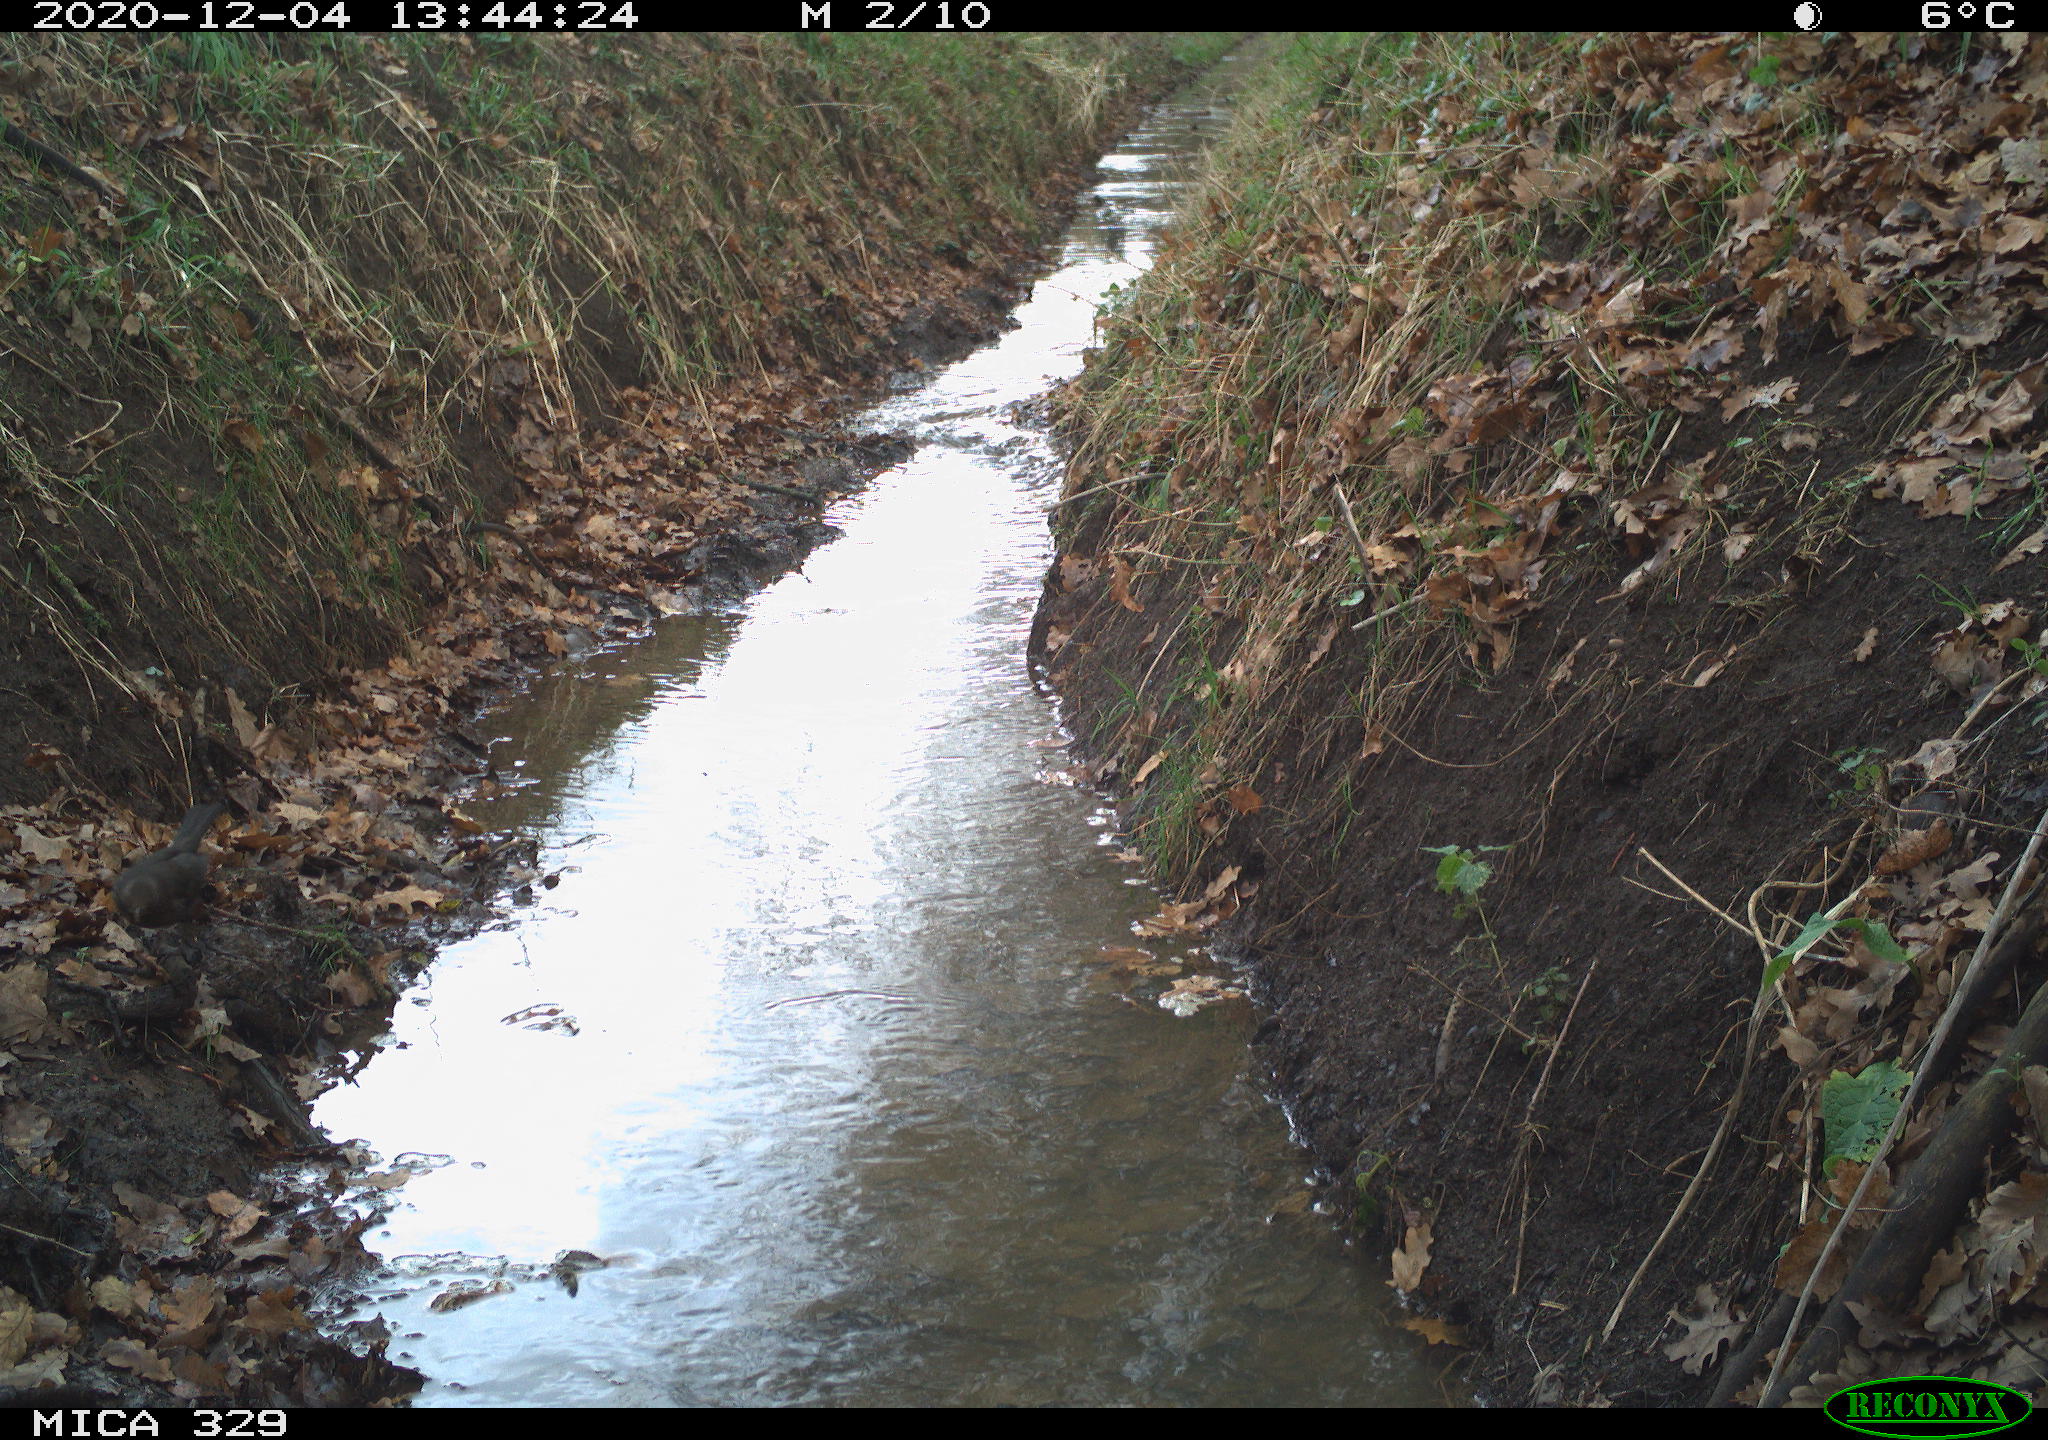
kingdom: Animalia
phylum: Chordata
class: Aves
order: Passeriformes
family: Turdidae
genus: Turdus
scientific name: Turdus philomelos
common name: Song thrush
